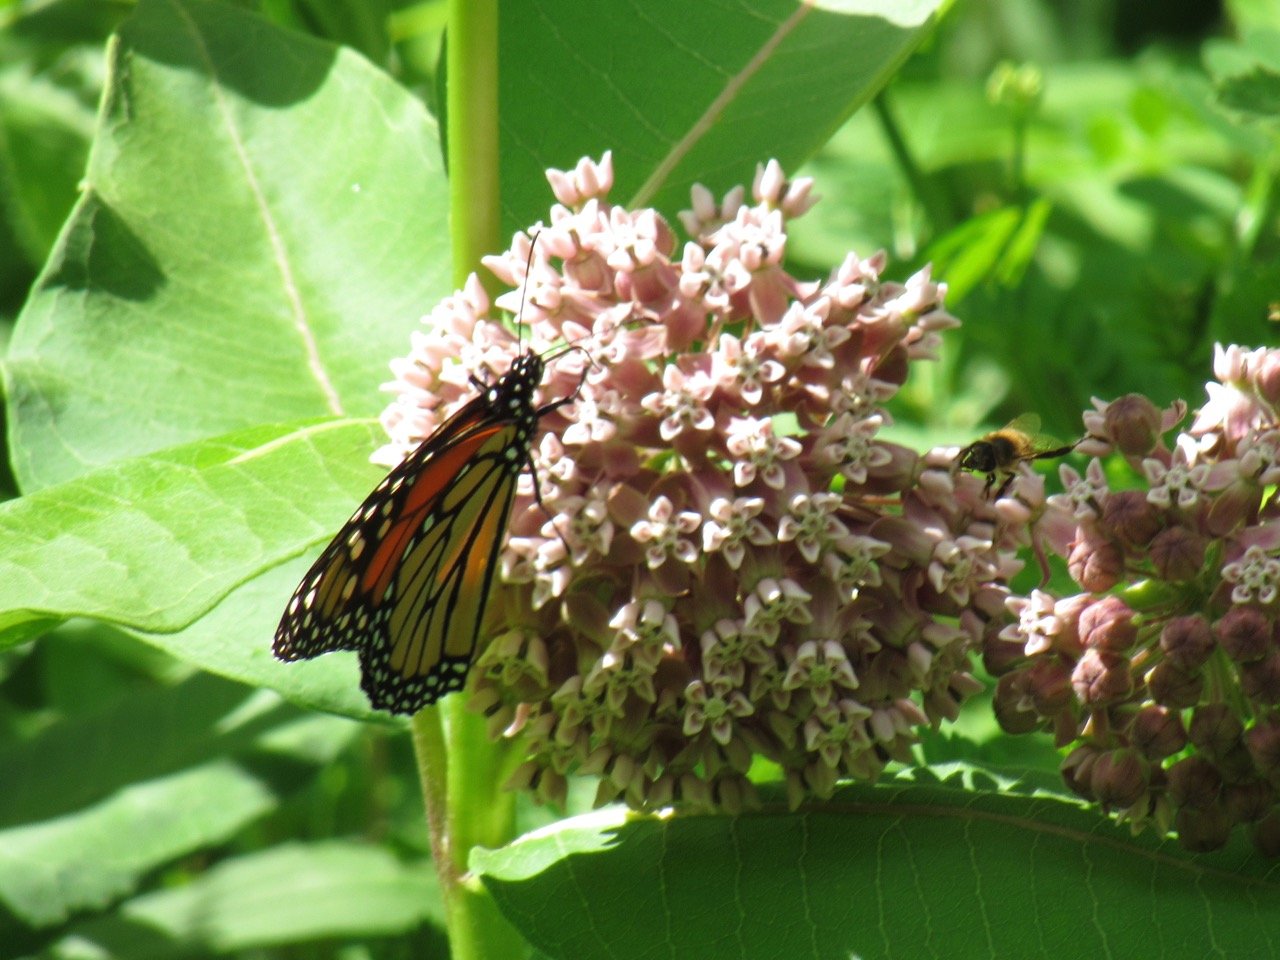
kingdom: Animalia
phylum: Arthropoda
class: Insecta
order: Lepidoptera
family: Nymphalidae
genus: Danaus
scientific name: Danaus plexippus
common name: Monarch
